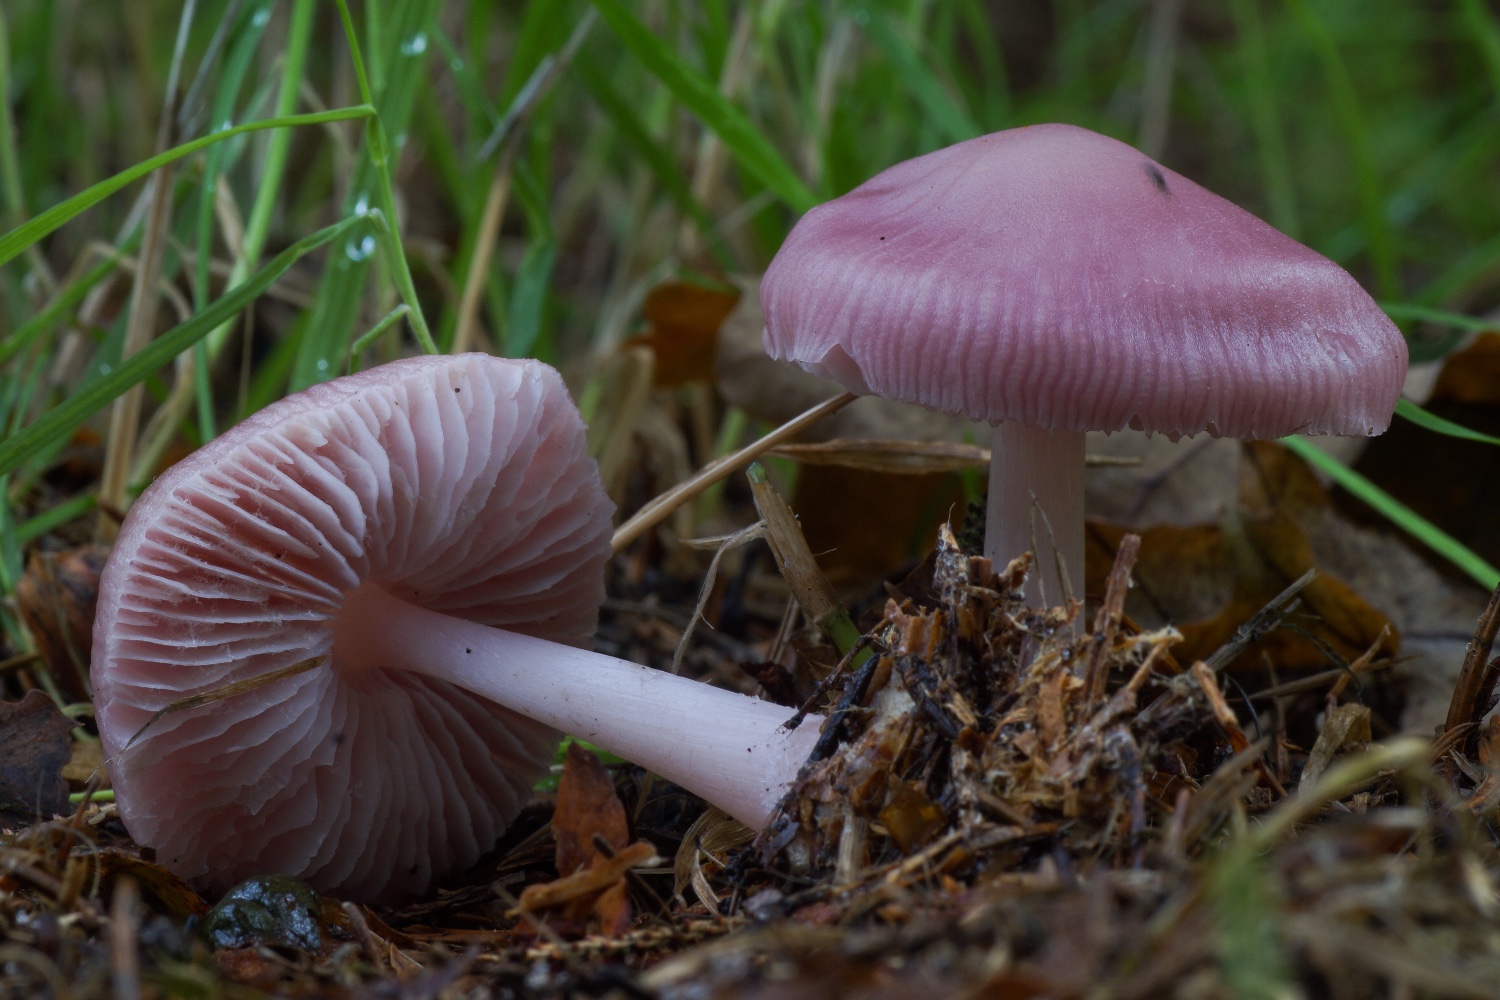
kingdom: Fungi
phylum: Basidiomycota
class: Agaricomycetes
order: Agaricales
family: Mycenaceae
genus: Mycena
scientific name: Mycena rosea
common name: rosa huesvamp
